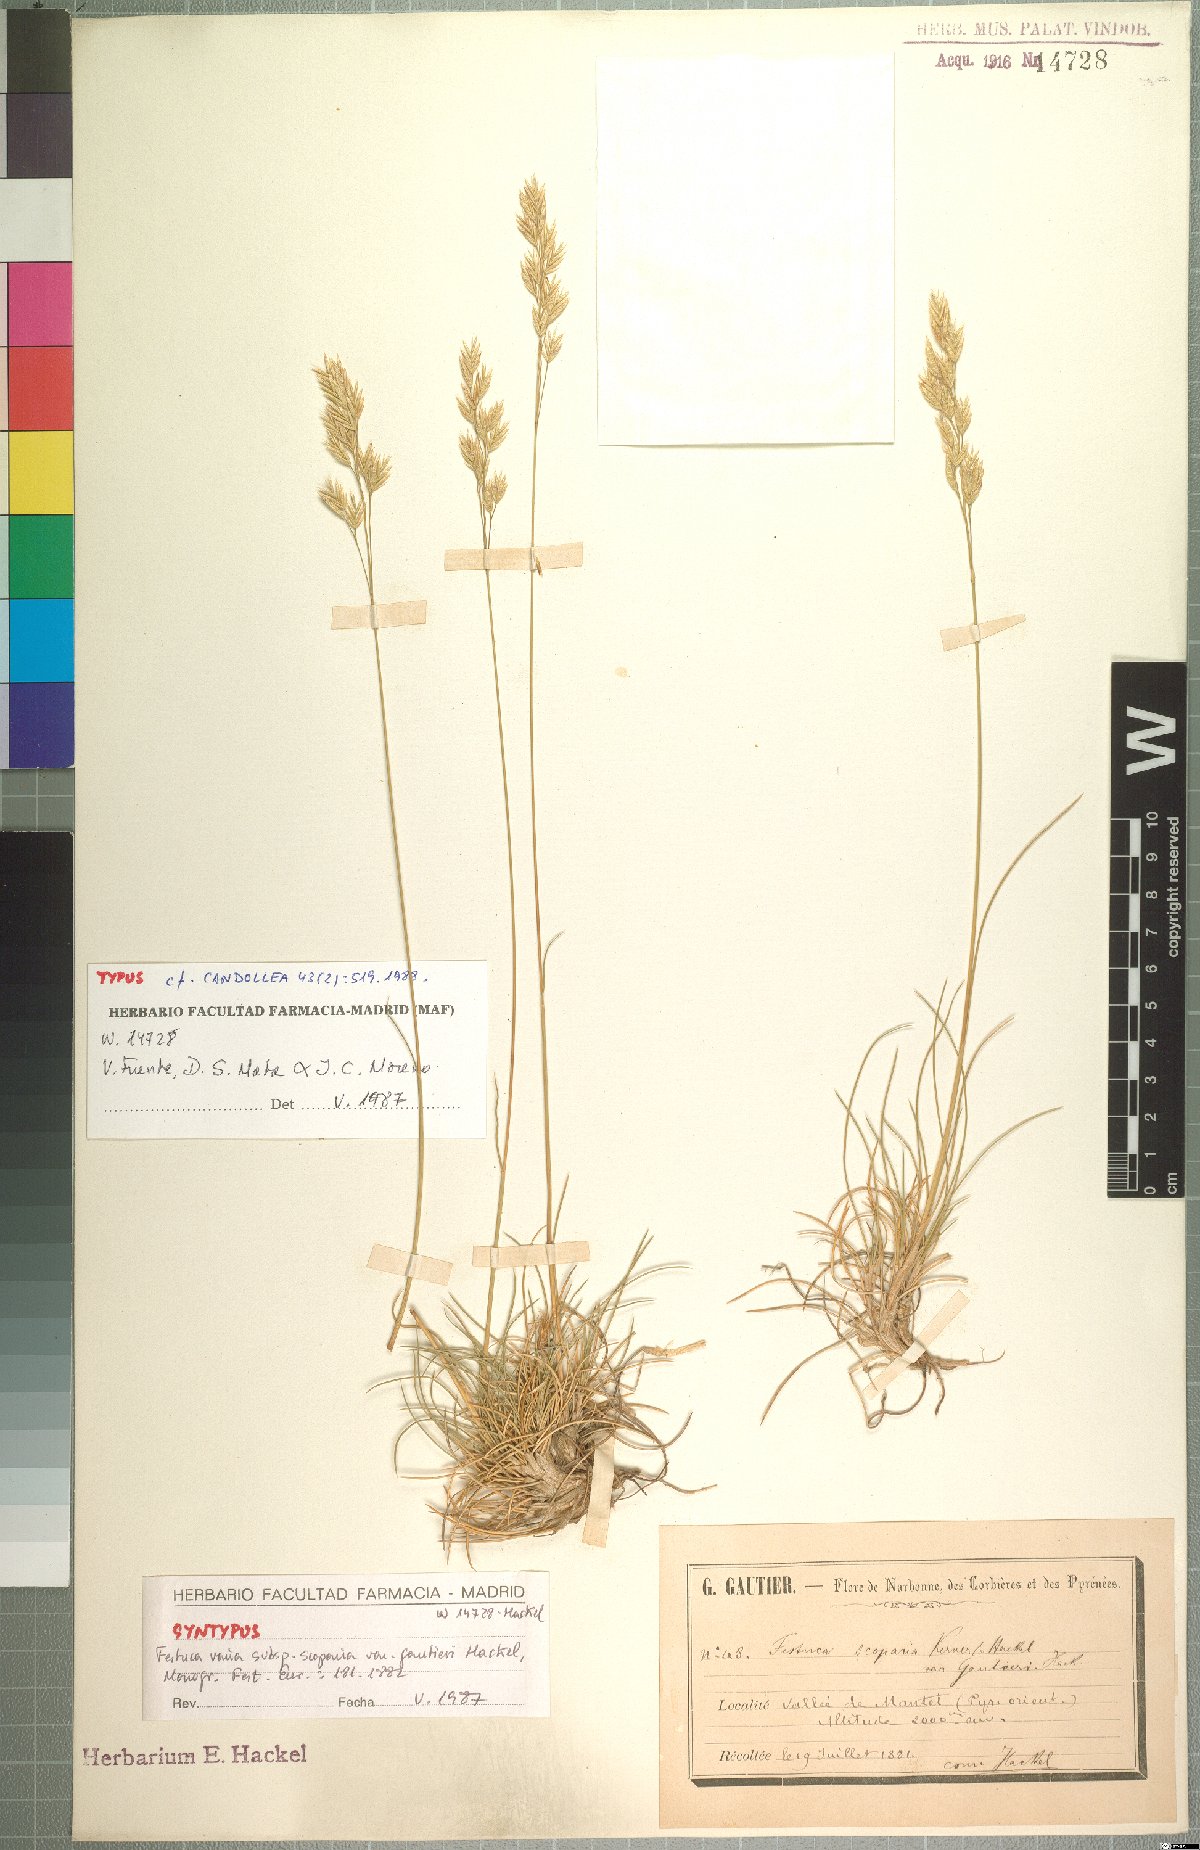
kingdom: Plantae
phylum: Tracheophyta
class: Liliopsida
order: Poales
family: Poaceae
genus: Festuca
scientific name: Festuca gautieri
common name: Spiky fescue
